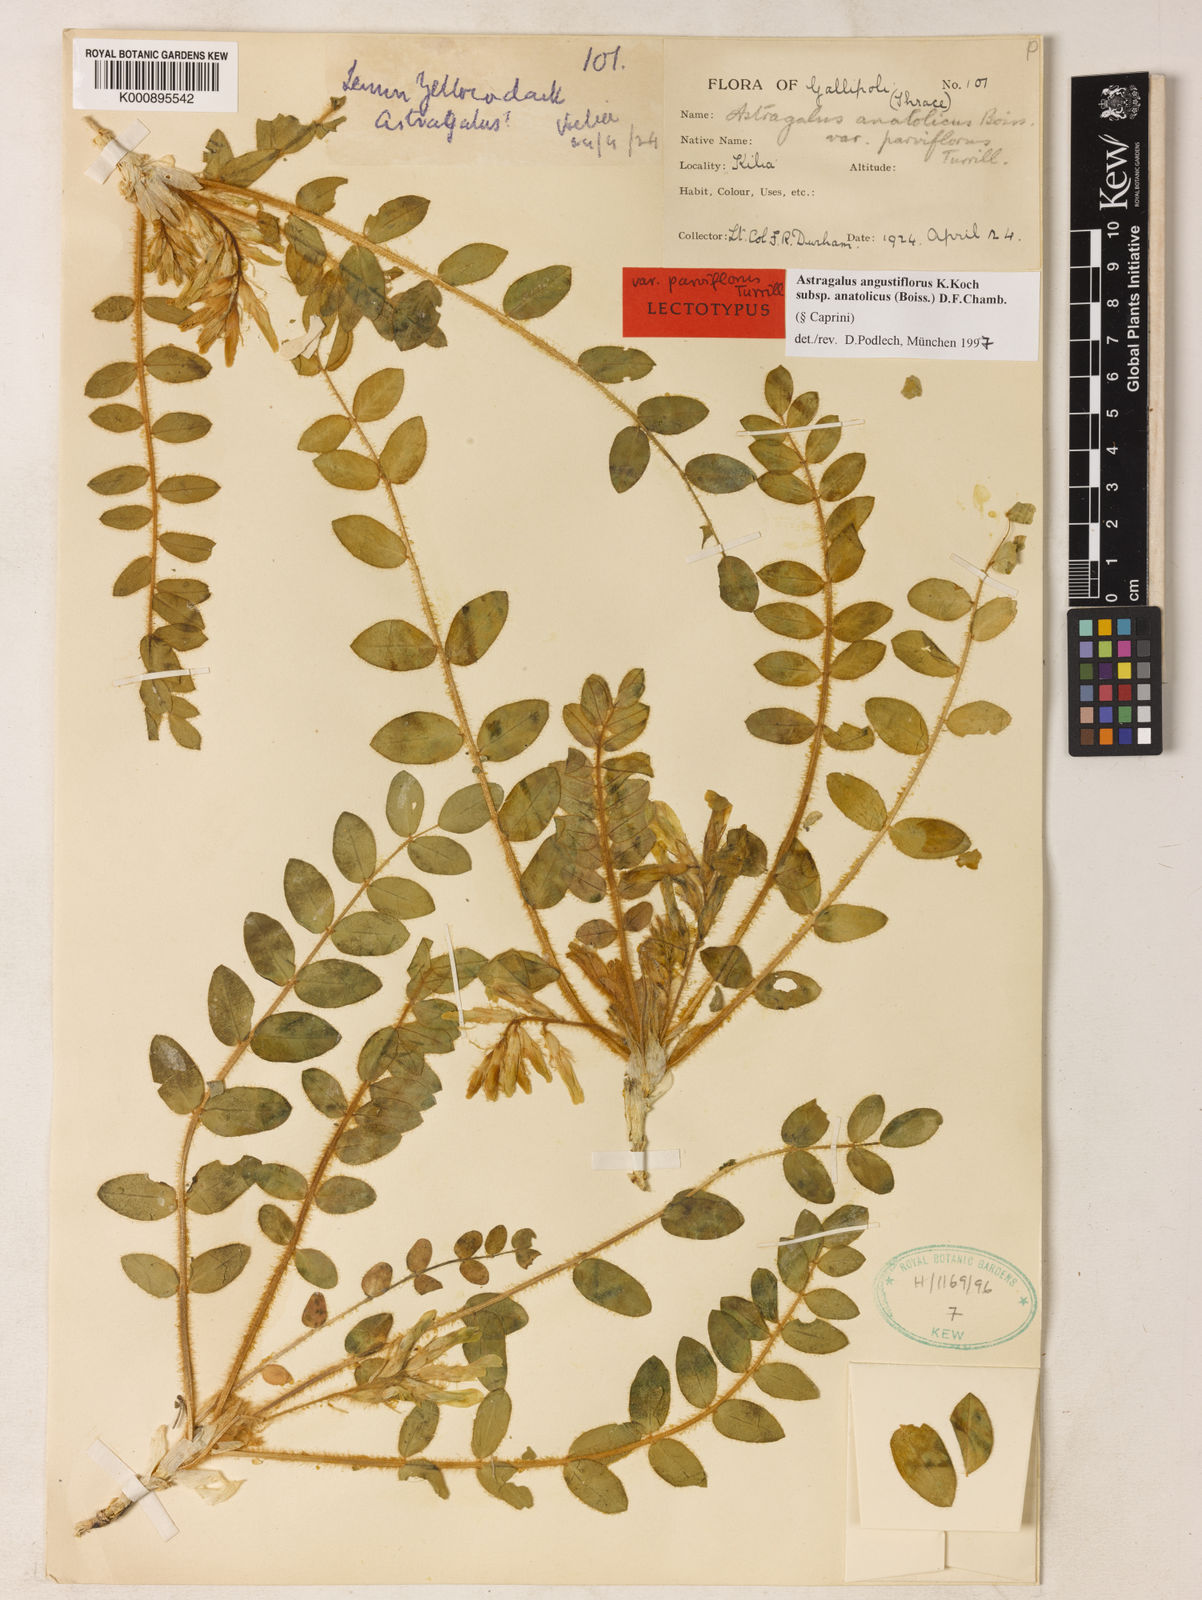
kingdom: Plantae
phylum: Tracheophyta
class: Magnoliopsida
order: Fabales
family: Fabaceae
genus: Astragalus
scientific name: Astragalus angustiflorus
